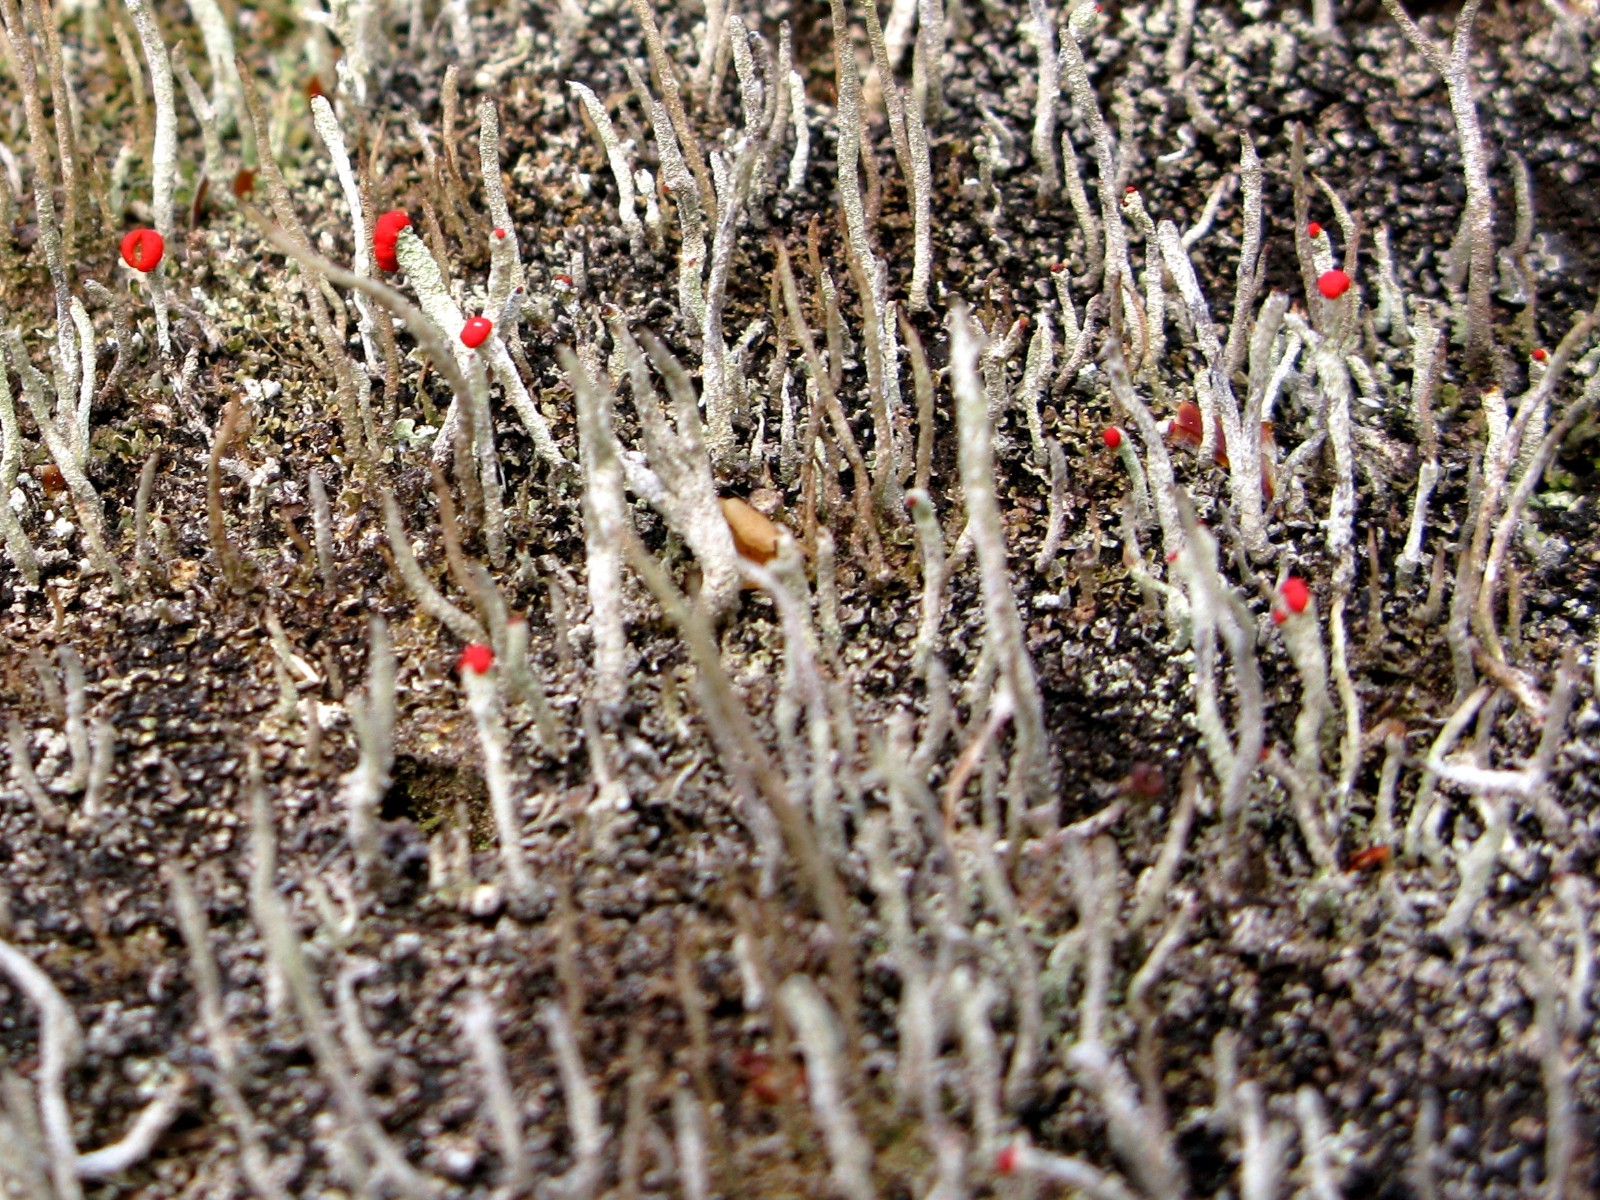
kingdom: Fungi
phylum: Ascomycota
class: Lecanoromycetes
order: Lecanorales
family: Cladoniaceae
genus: Cladonia
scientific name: Cladonia macilenta
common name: indsvunden bægerlav
